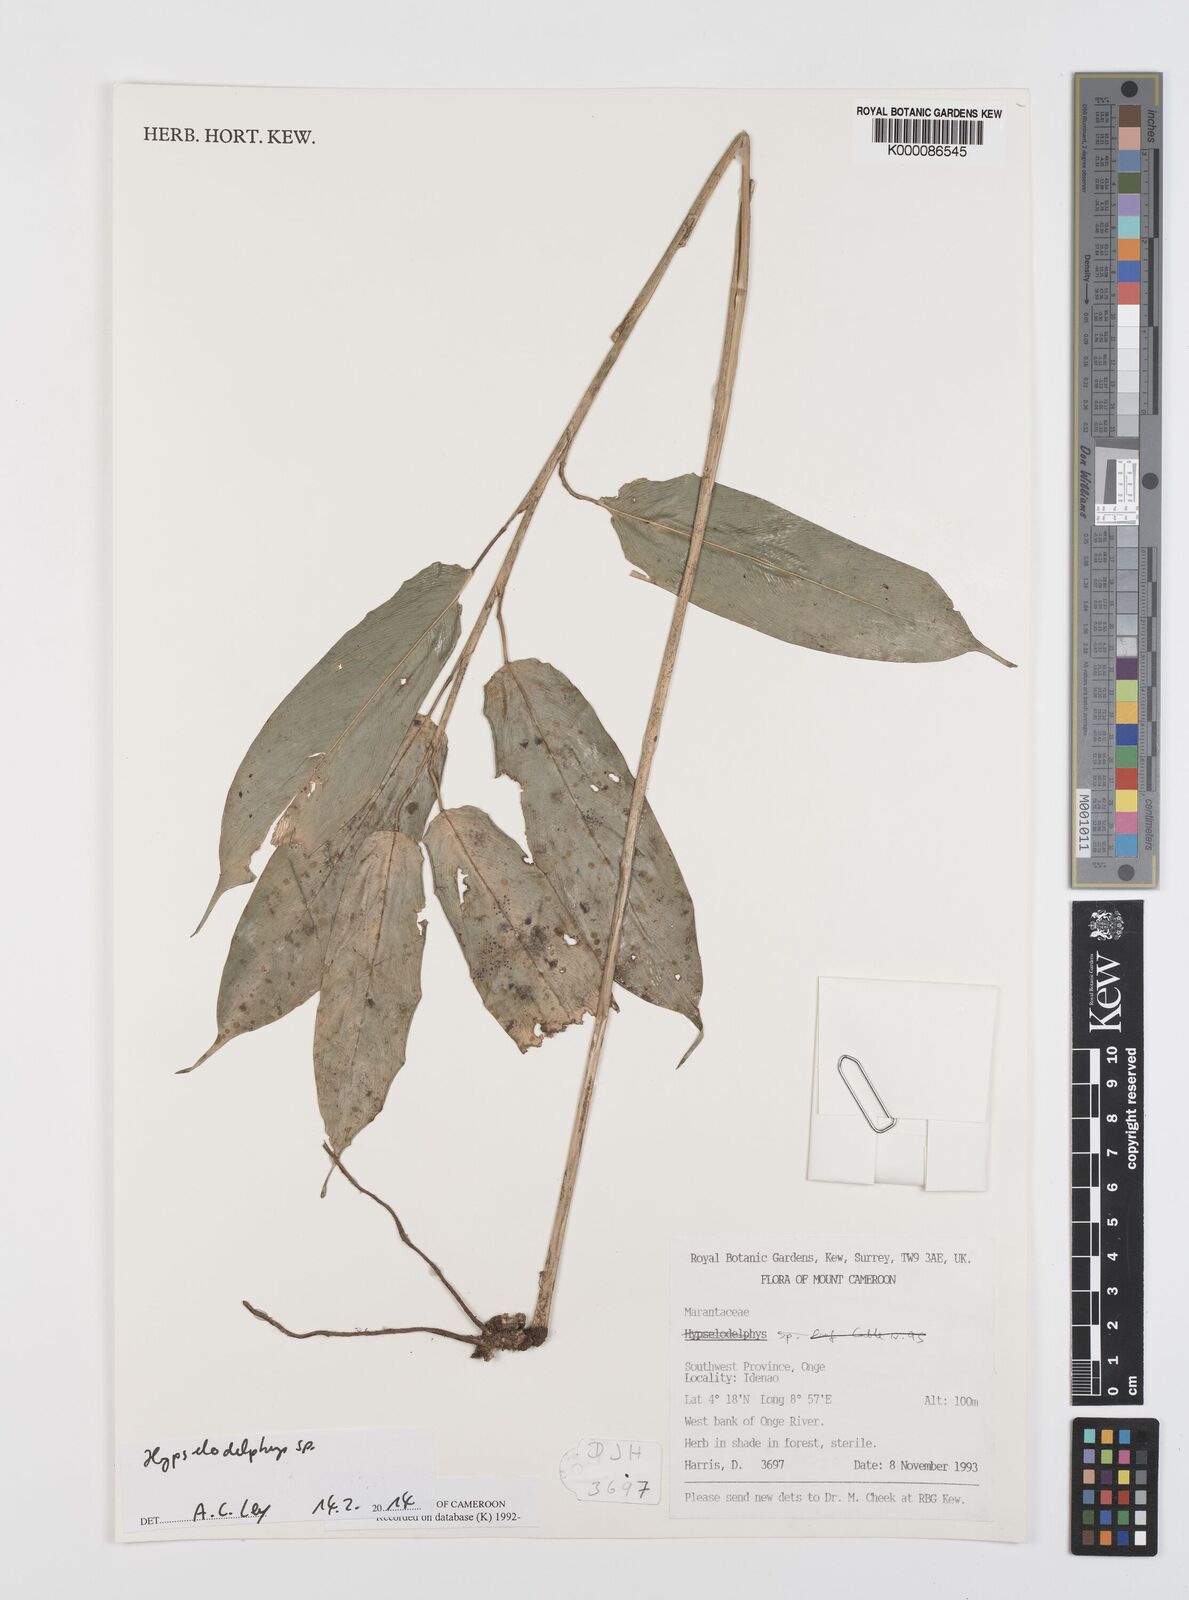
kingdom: Plantae
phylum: Tracheophyta
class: Liliopsida
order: Zingiberales
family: Marantaceae
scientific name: Marantaceae
